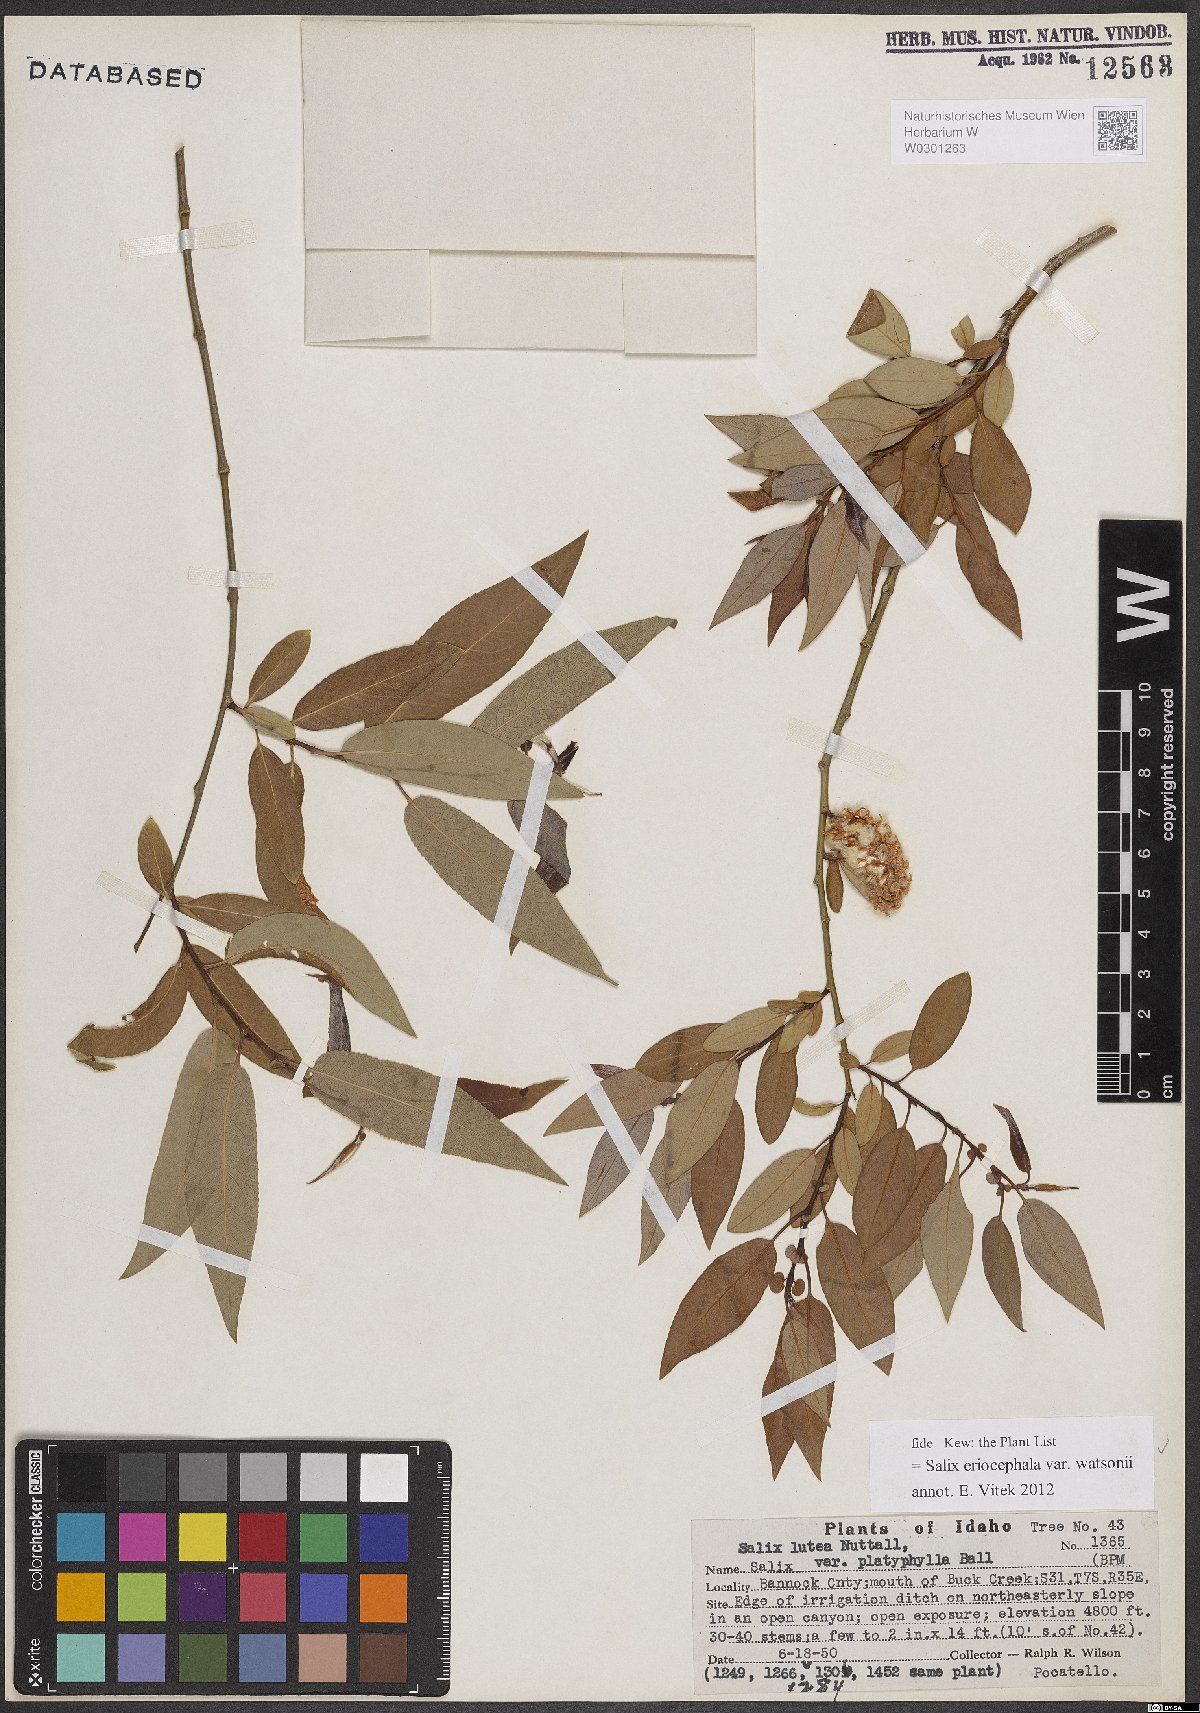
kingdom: Plantae
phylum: Tracheophyta
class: Magnoliopsida
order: Malpighiales
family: Salicaceae
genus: Salix
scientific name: Salix lutea
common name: Yellow willow
